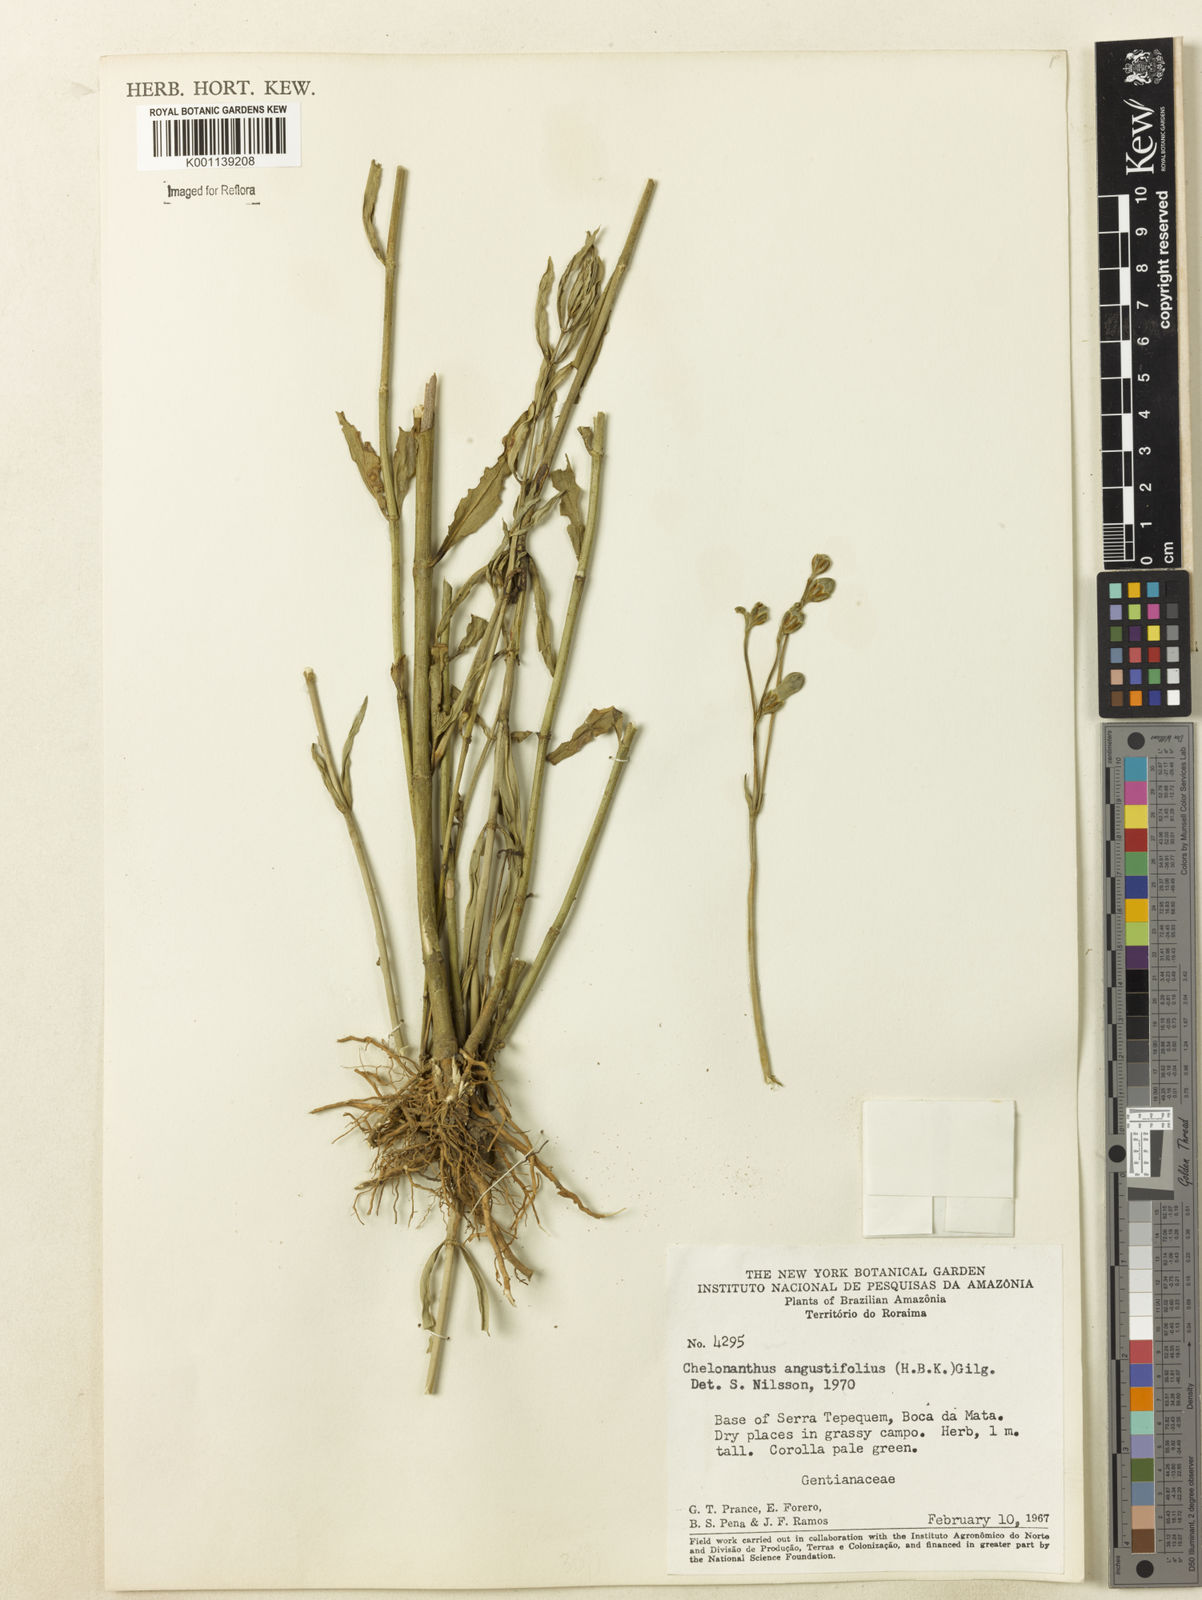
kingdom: Plantae
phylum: Tracheophyta
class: Magnoliopsida
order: Gentianales
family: Gentianaceae
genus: Chelonanthus
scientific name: Chelonanthus
